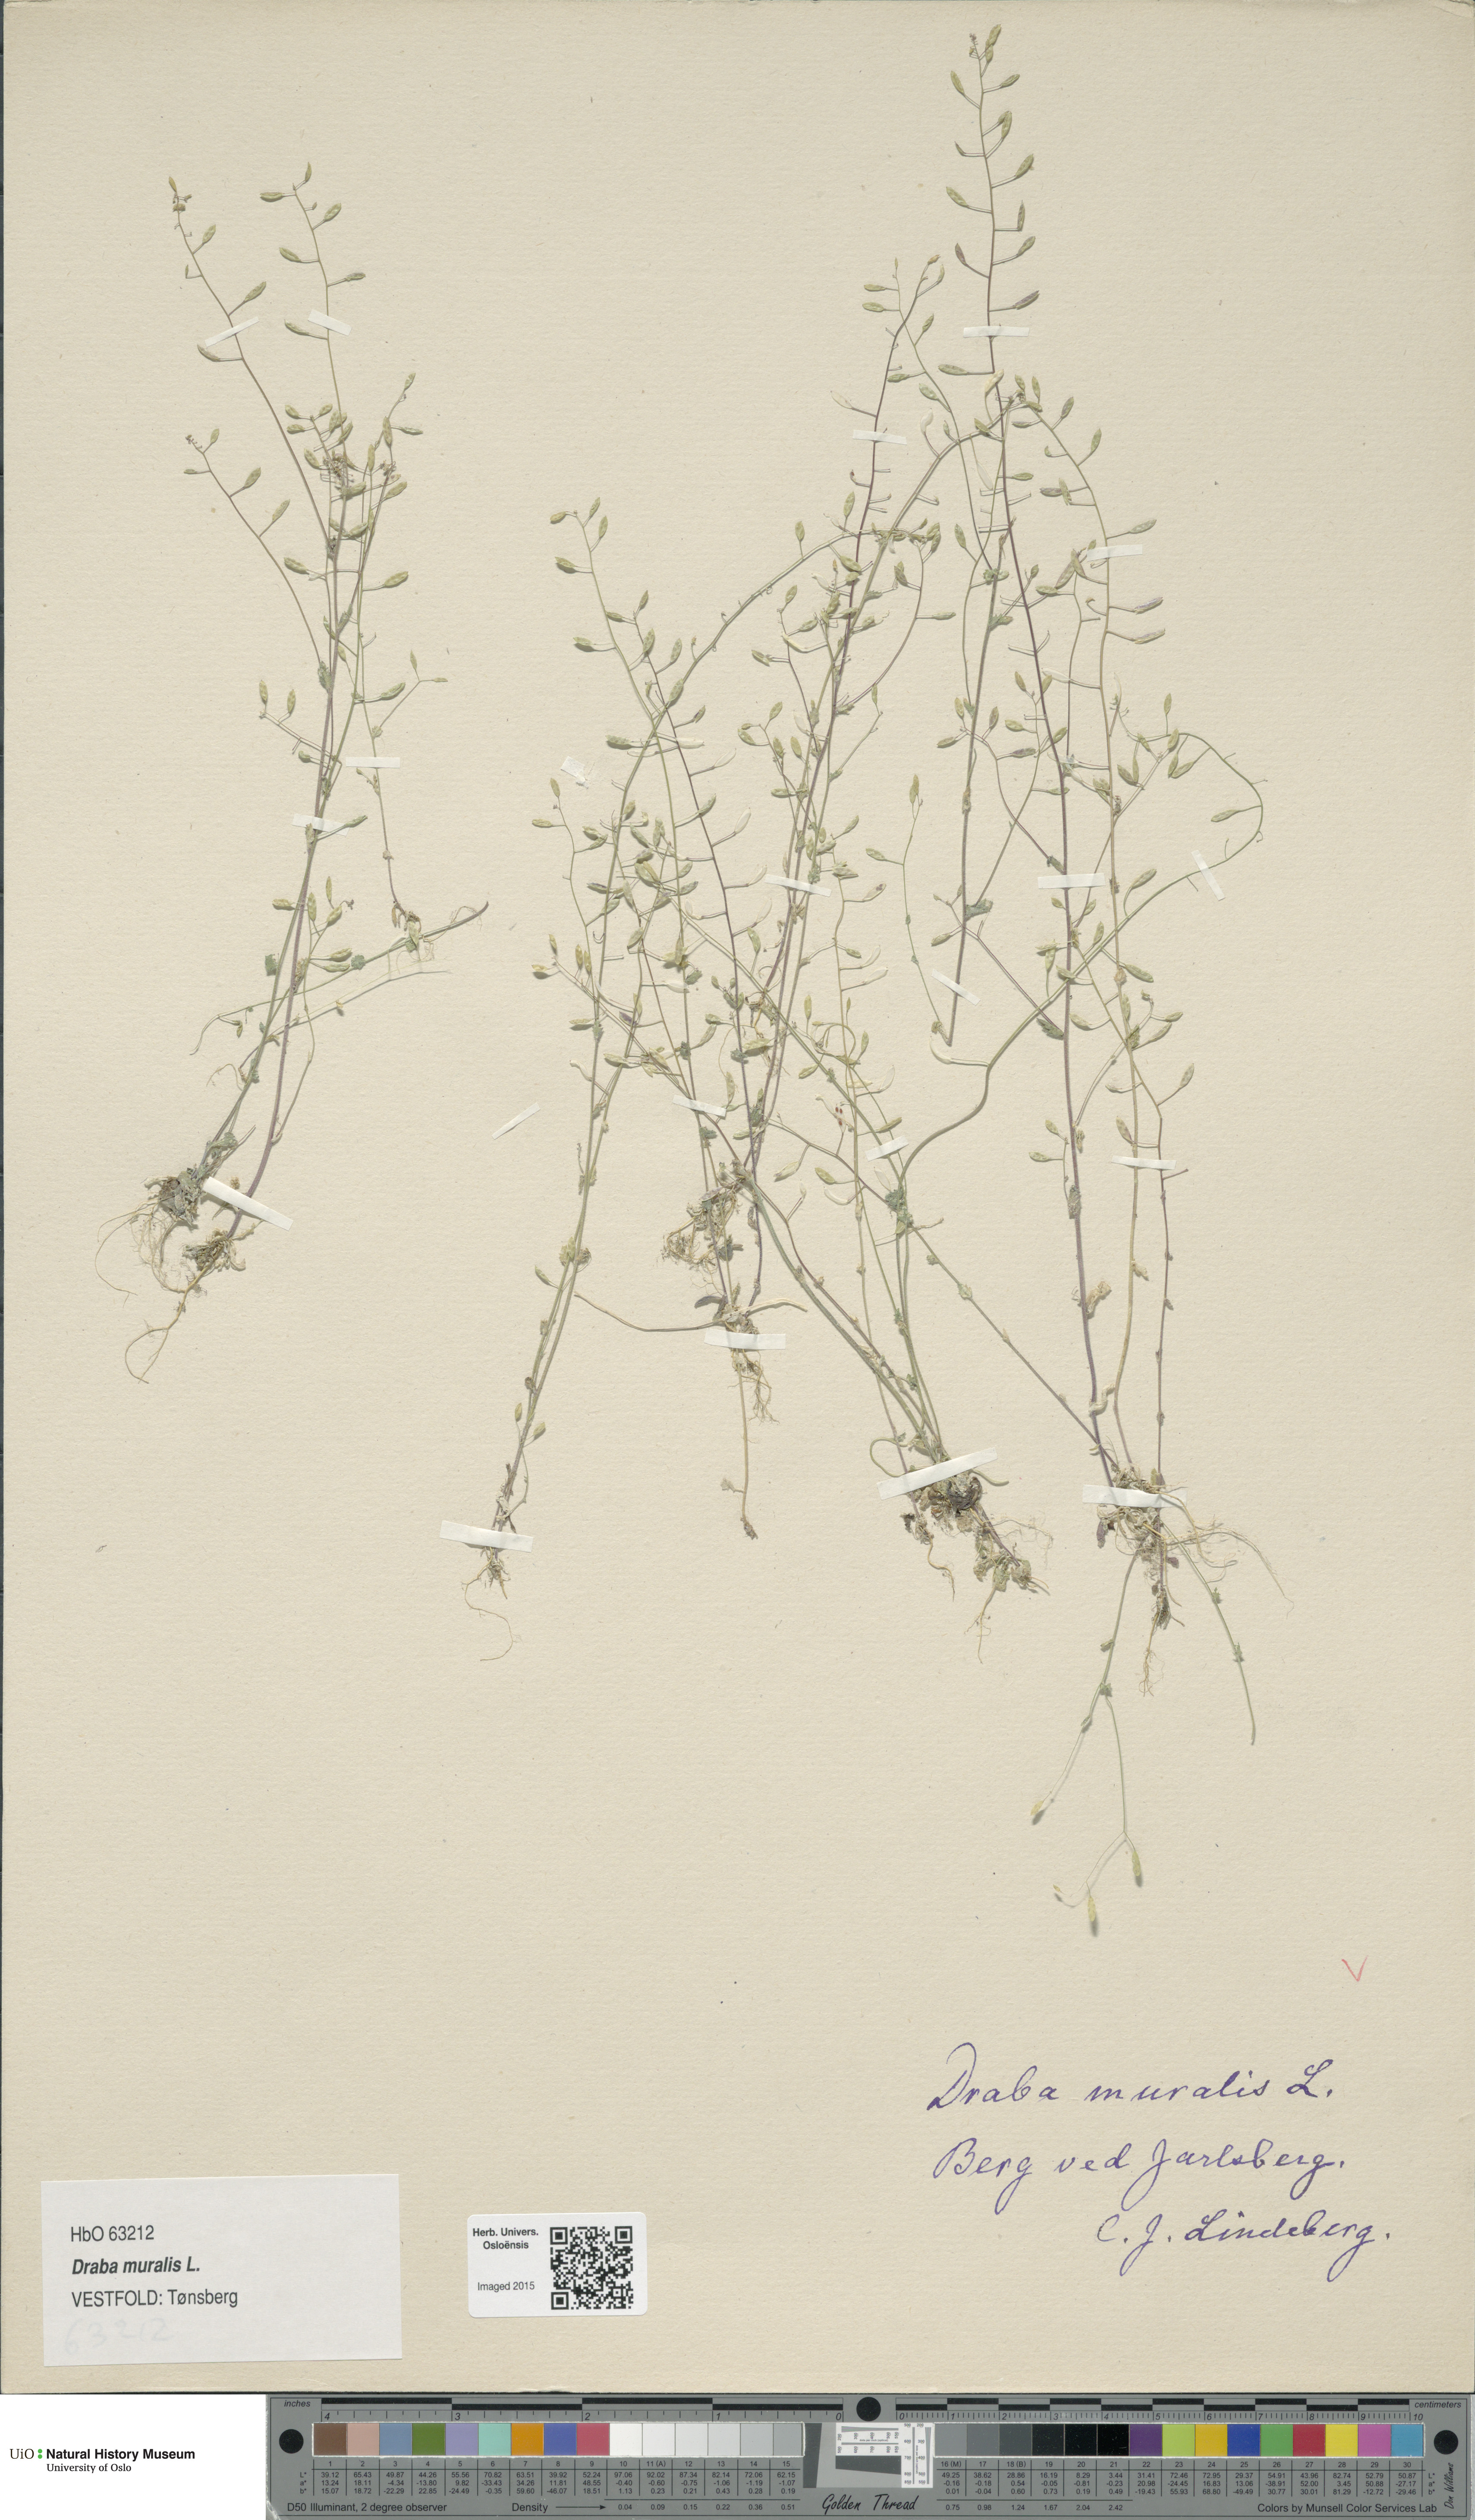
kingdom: Plantae
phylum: Tracheophyta
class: Magnoliopsida
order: Brassicales
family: Brassicaceae
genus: Drabella
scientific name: Drabella muralis
